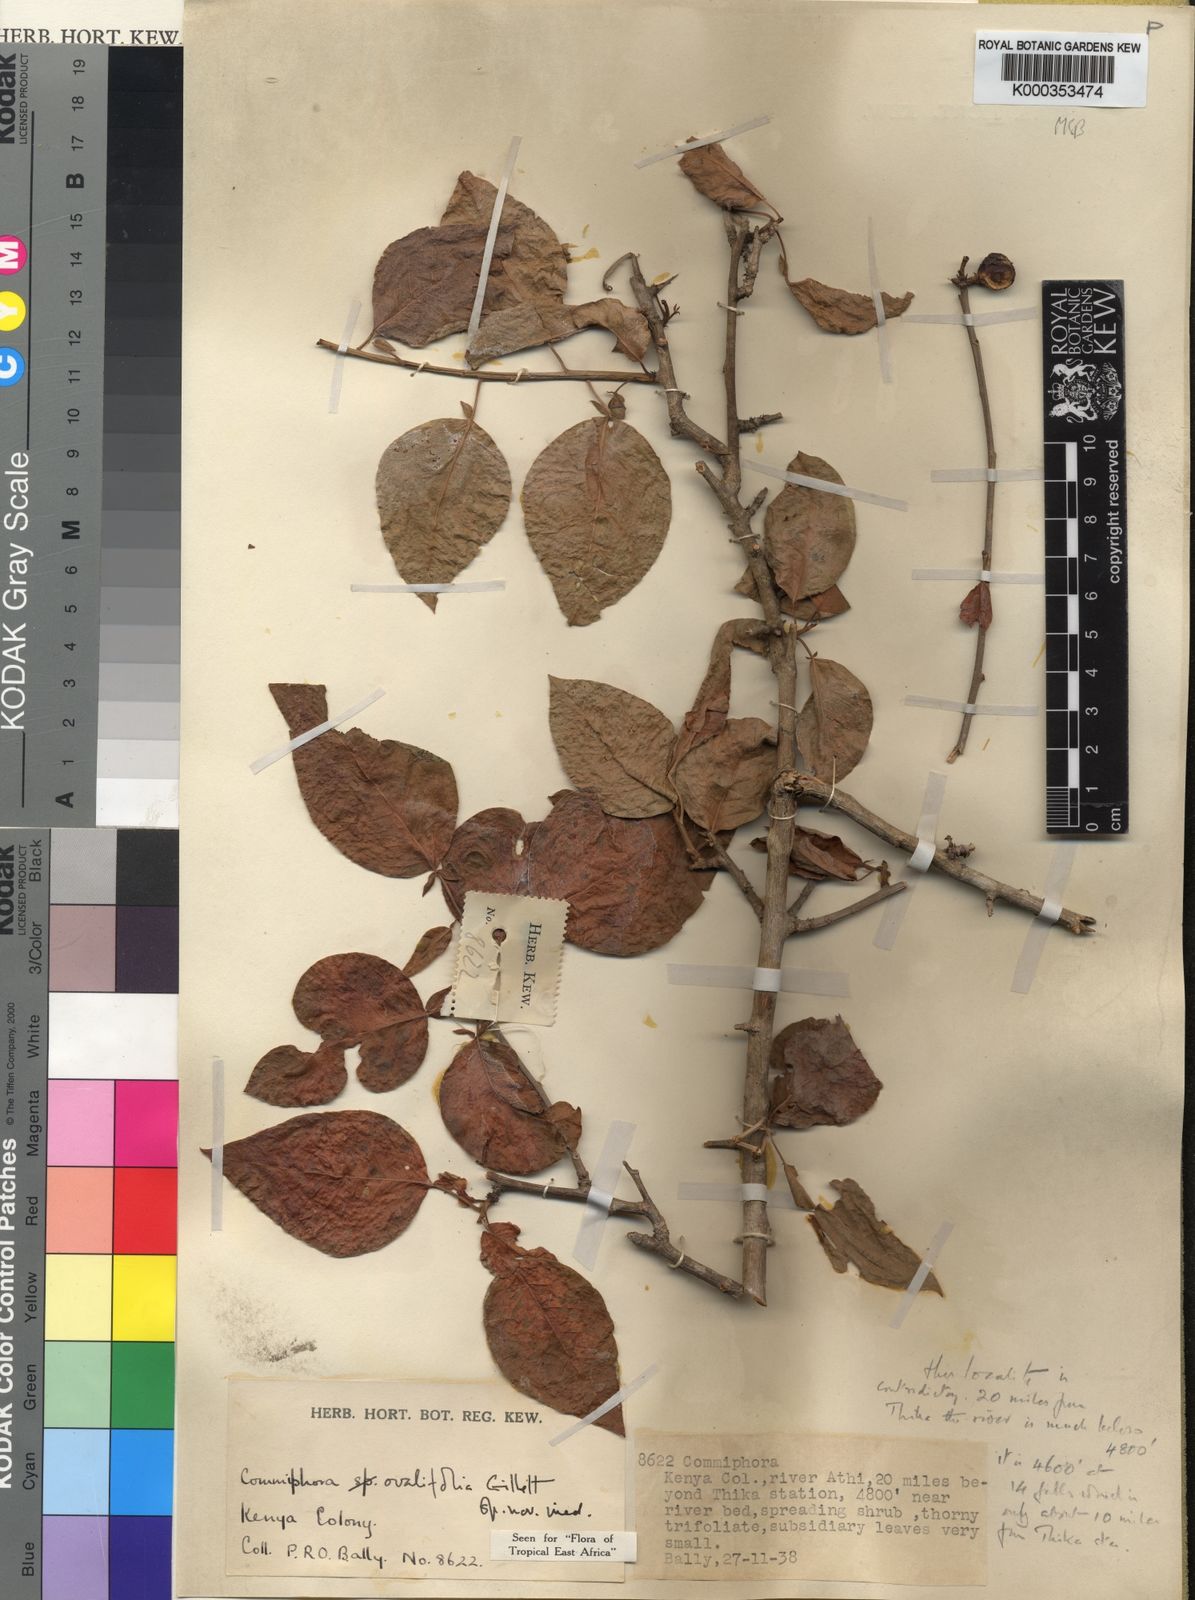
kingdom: Plantae
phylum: Tracheophyta
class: Magnoliopsida
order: Sapindales
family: Burseraceae
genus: Commiphora
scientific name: Commiphora ovalifolia
